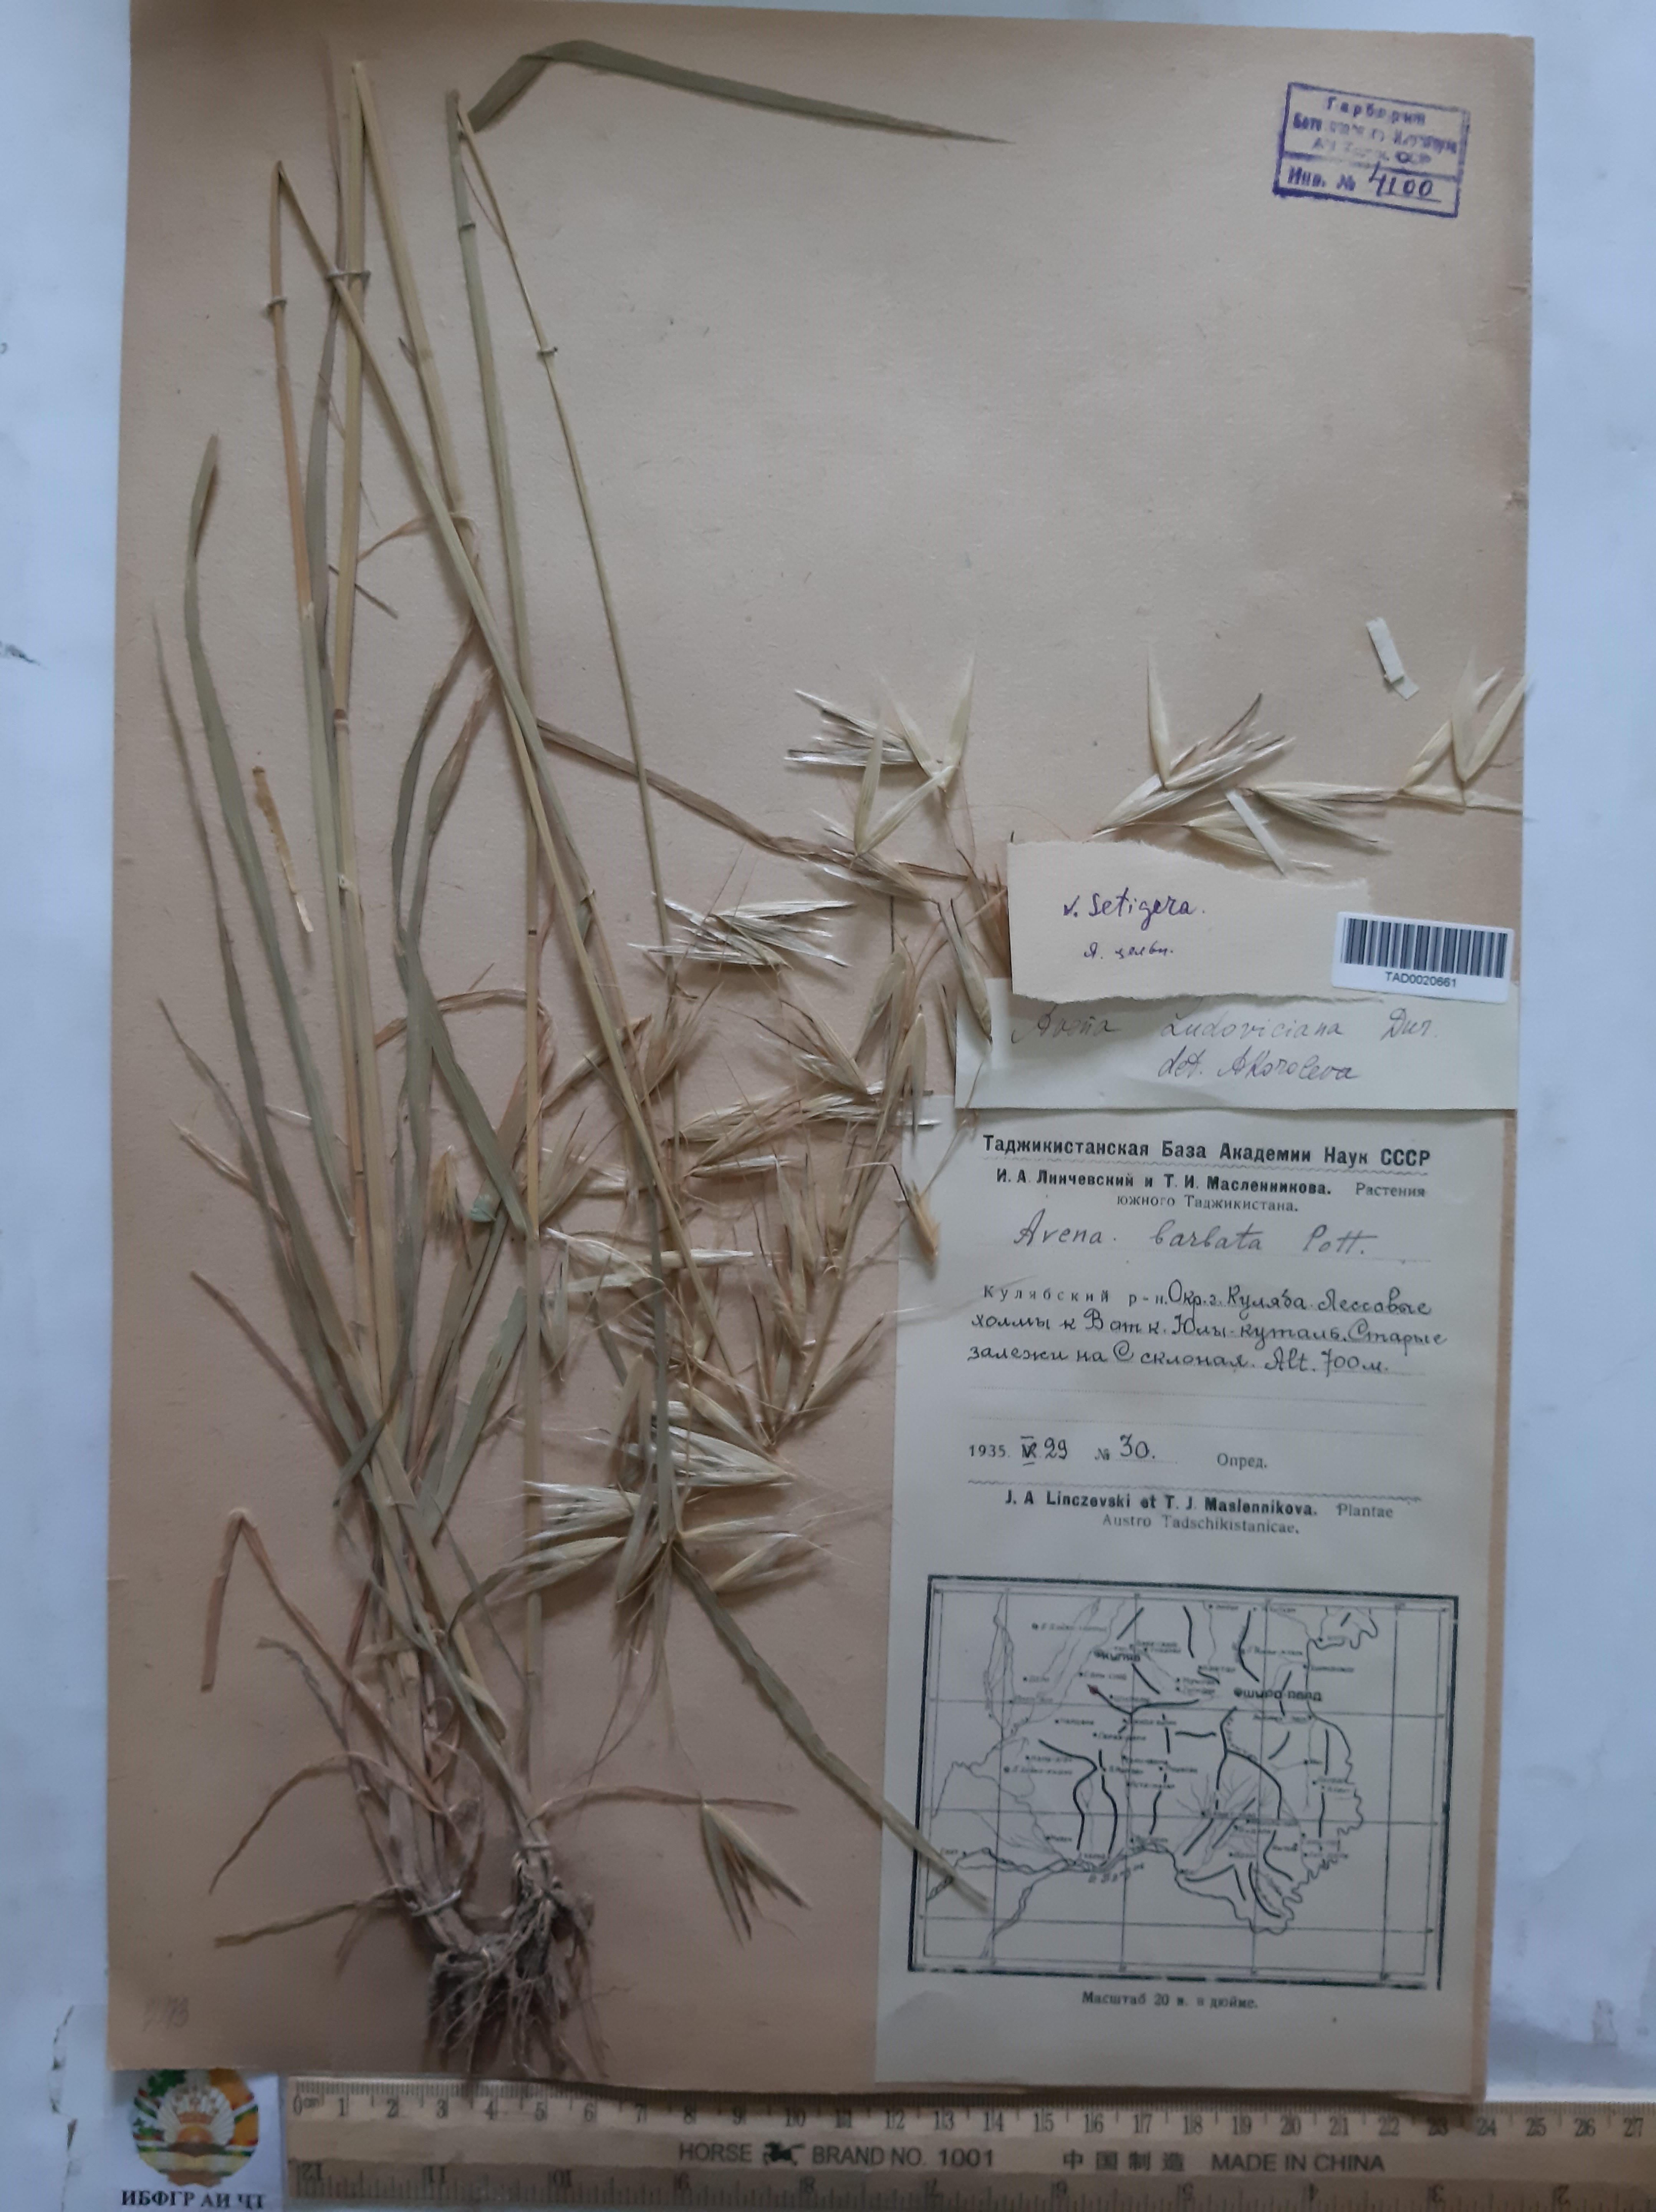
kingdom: Plantae
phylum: Tracheophyta
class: Liliopsida
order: Poales
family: Poaceae
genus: Avena
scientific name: Avena sterilis
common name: Animated oat
